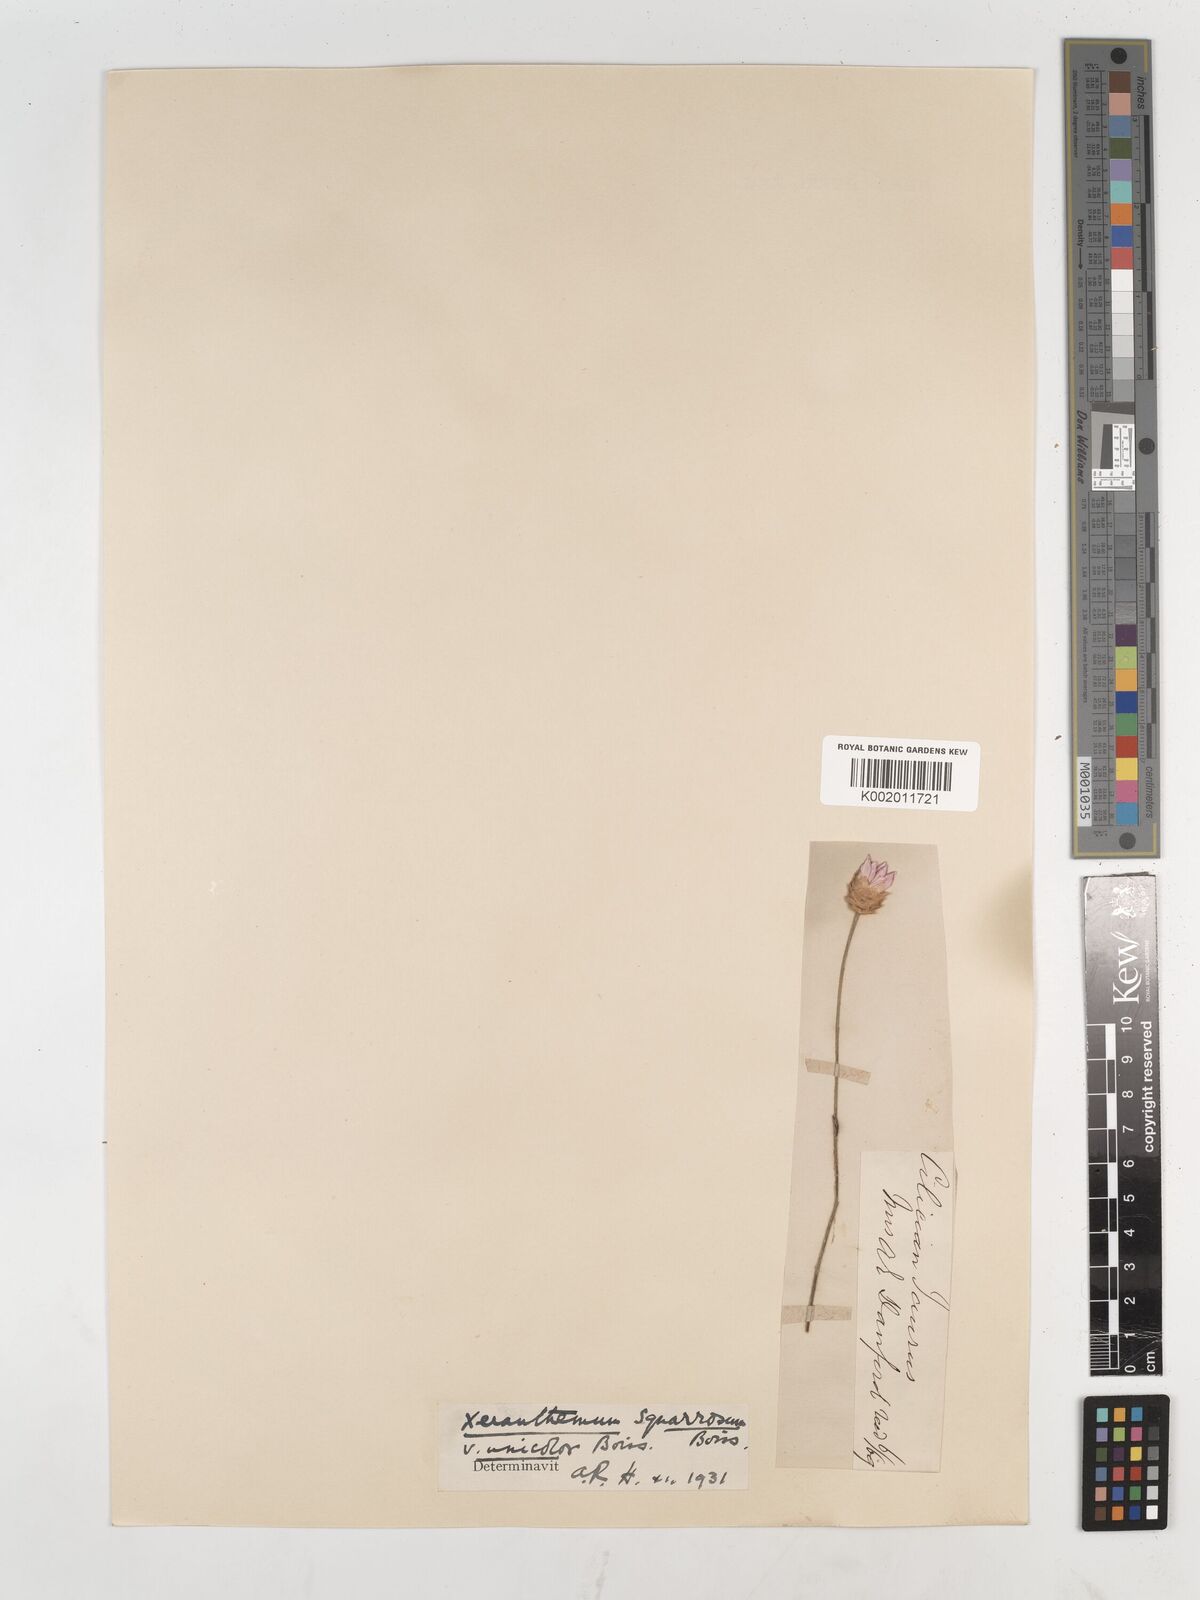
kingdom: Plantae
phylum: Tracheophyta
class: Magnoliopsida
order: Asterales
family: Asteraceae
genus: Xeranthemum
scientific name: Xeranthemum squarrosum
